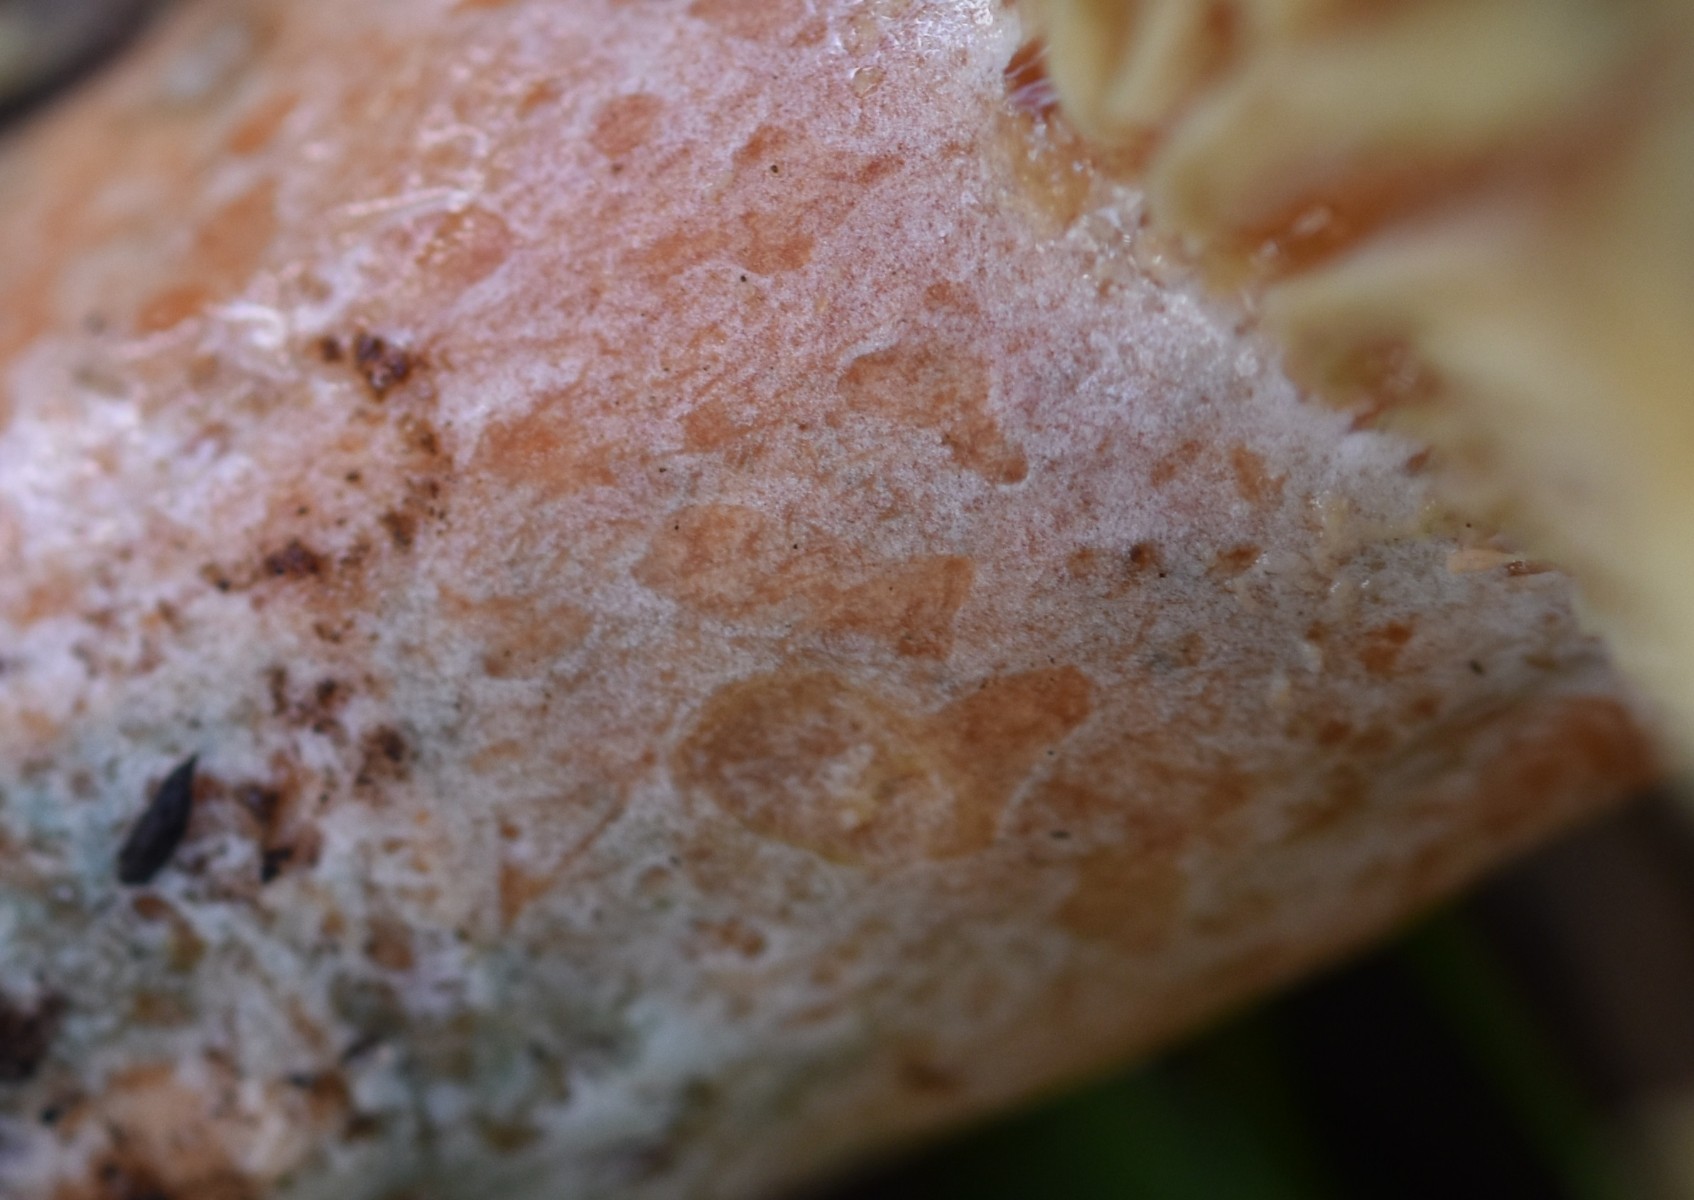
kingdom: Fungi
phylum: Basidiomycota
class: Agaricomycetes
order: Russulales
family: Russulaceae
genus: Lactarius
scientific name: Lactarius
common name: mælkehat
